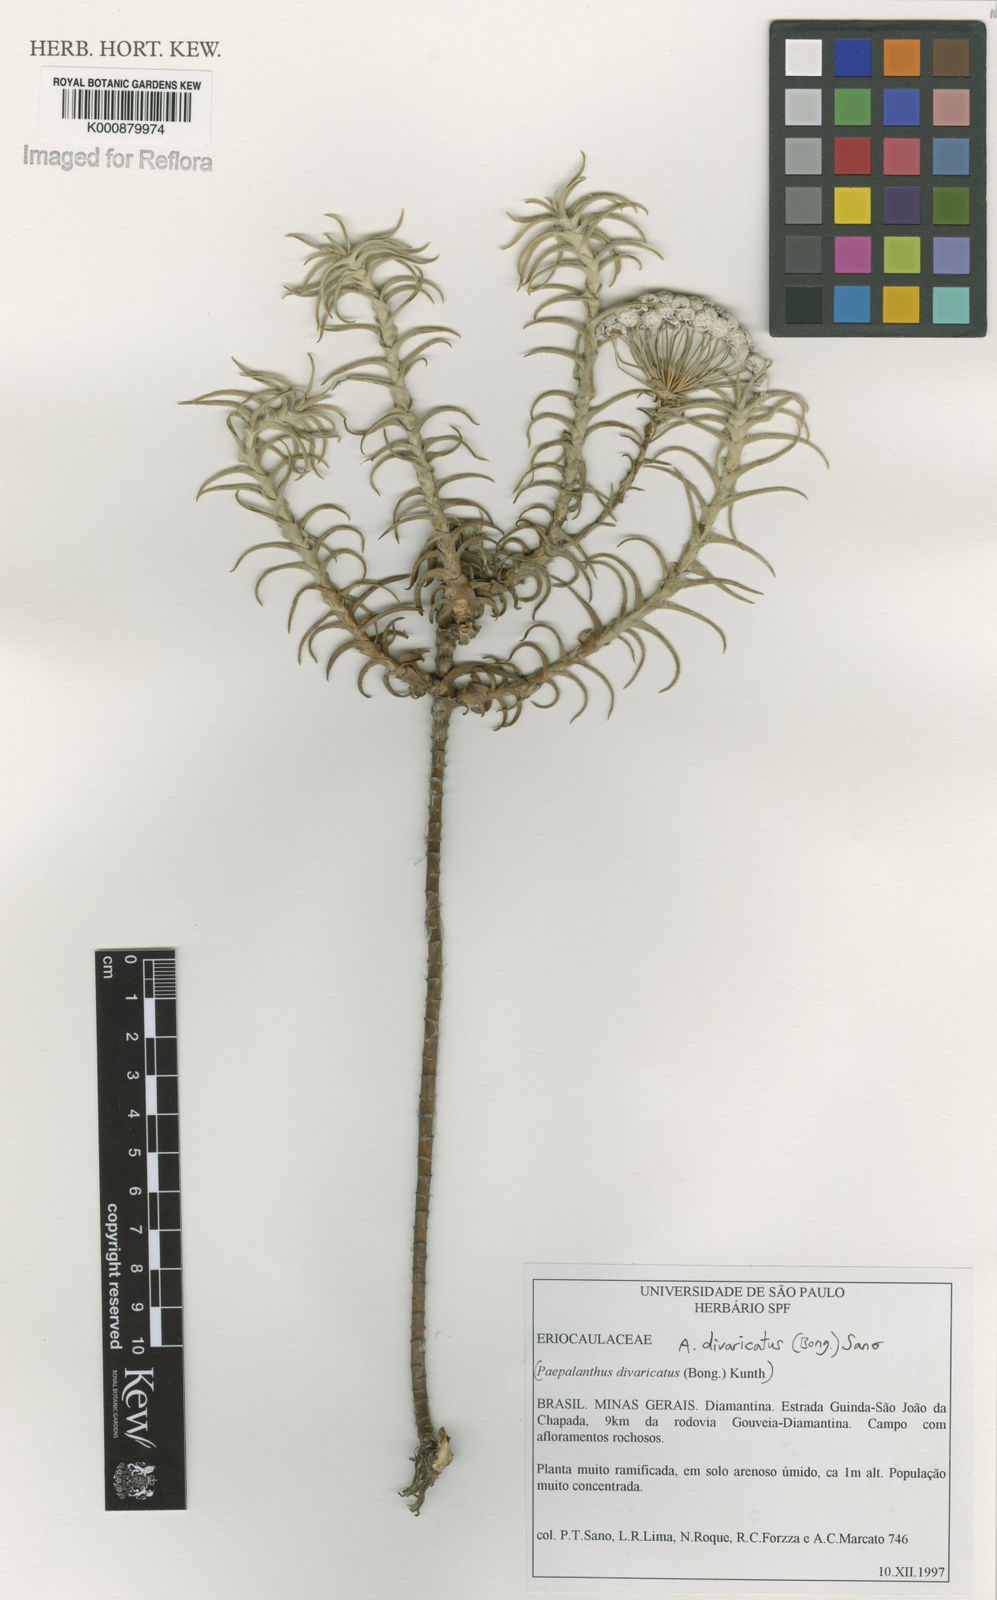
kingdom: Plantae
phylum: Tracheophyta
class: Liliopsida
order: Poales
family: Eriocaulaceae
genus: Paepalanthus
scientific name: Paepalanthus divaricatus
